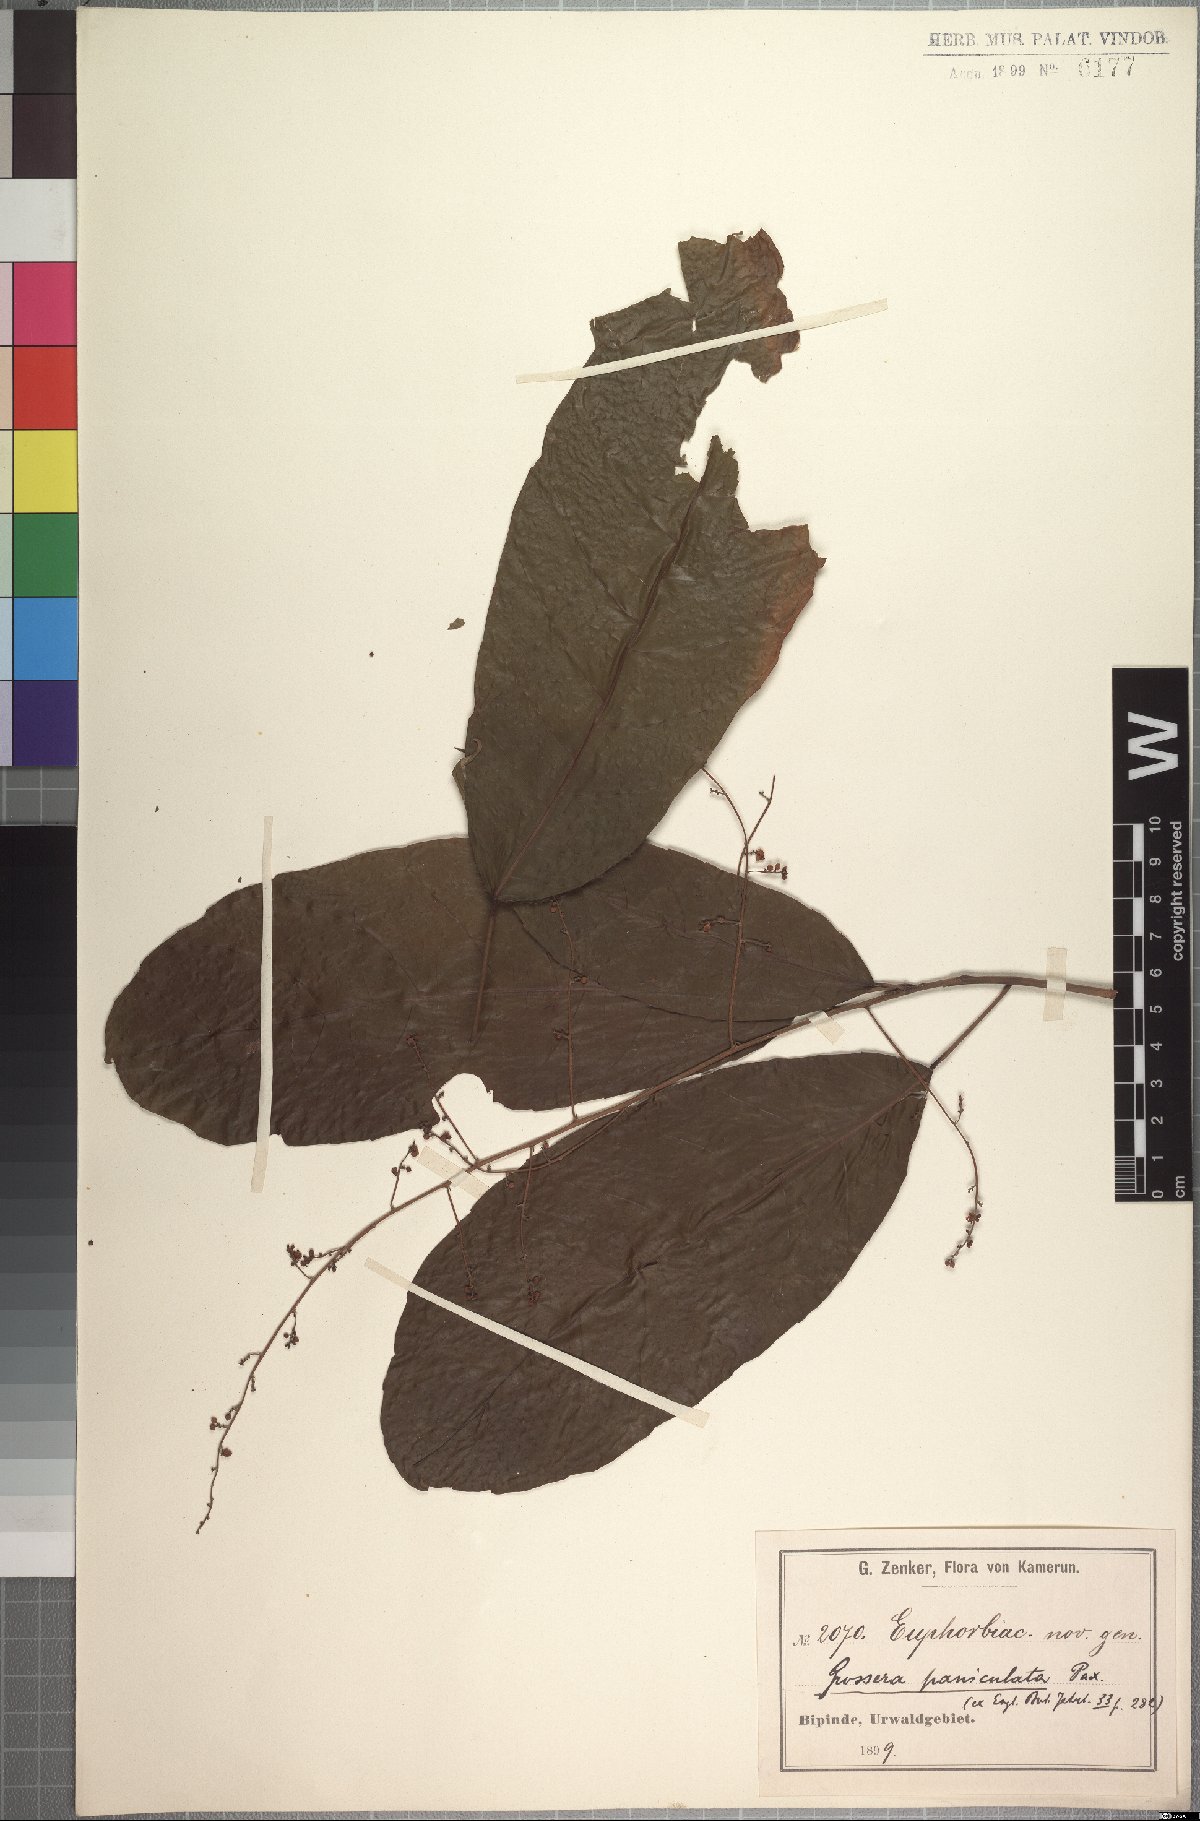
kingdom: Plantae
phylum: Tracheophyta
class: Magnoliopsida
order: Malpighiales
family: Euphorbiaceae
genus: Grossera
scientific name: Grossera paniculata
